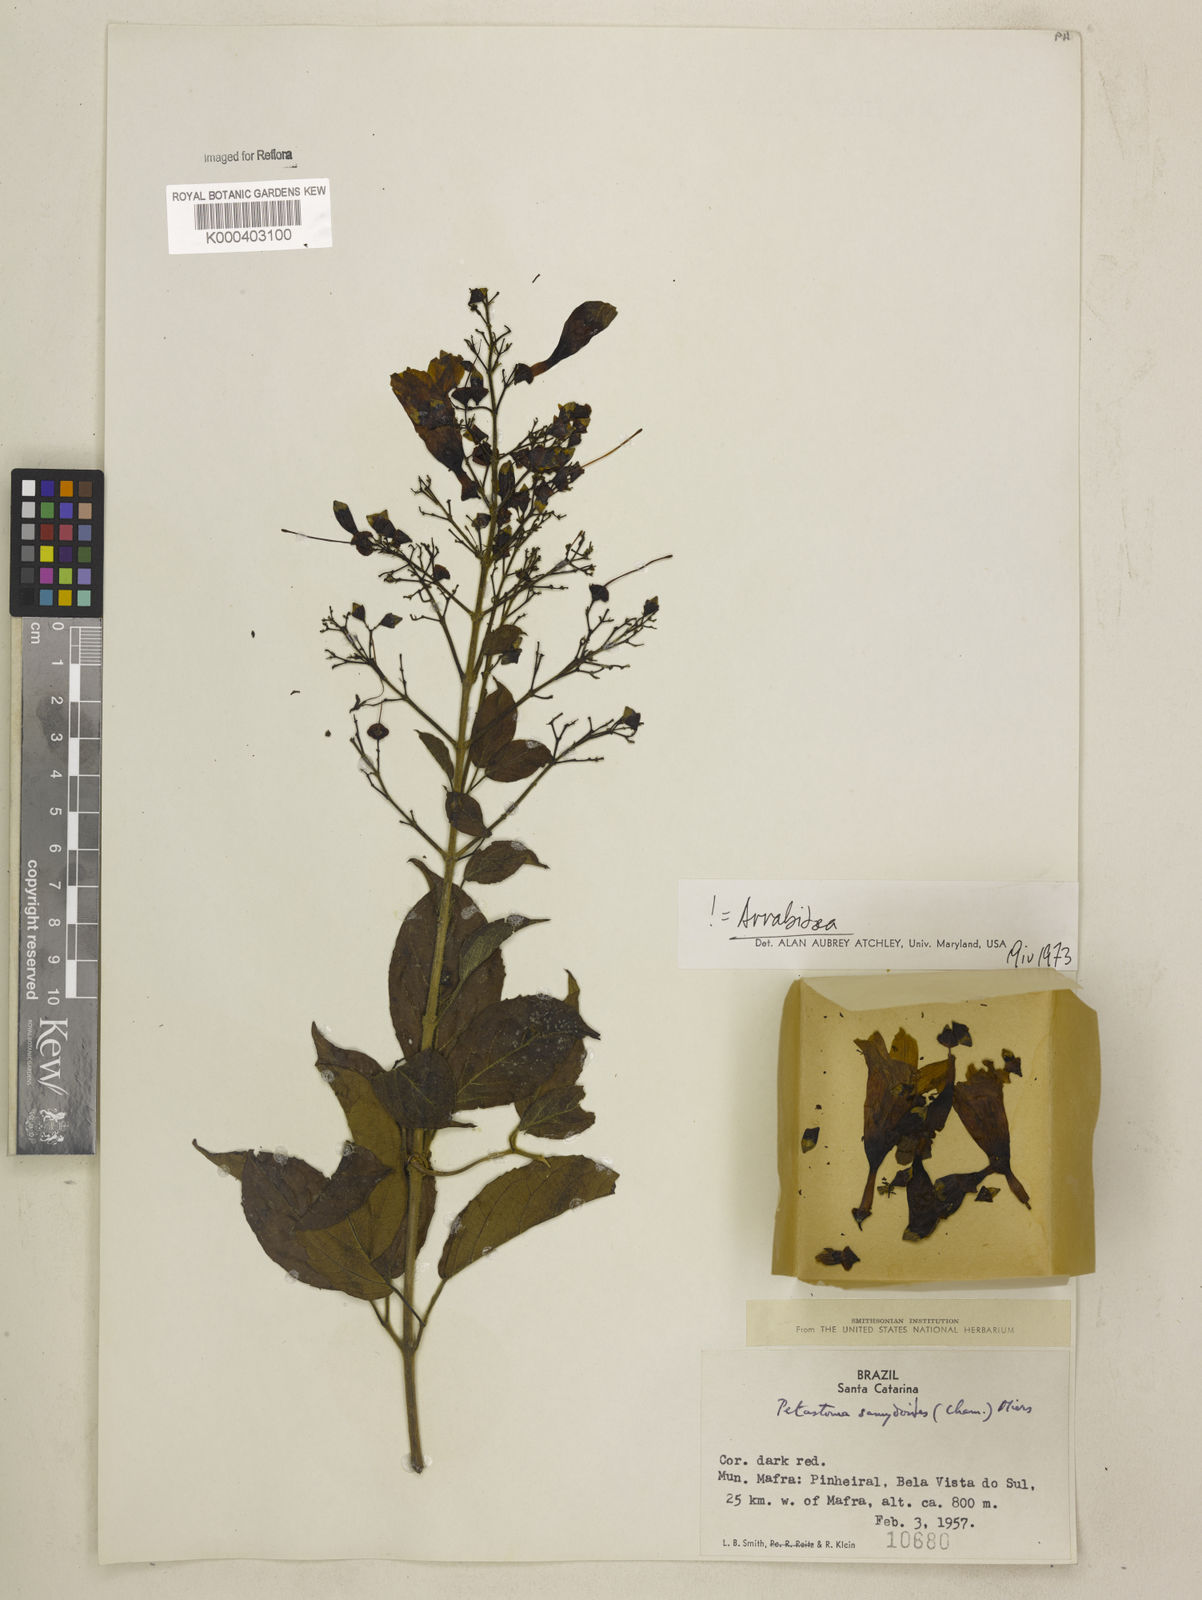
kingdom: Plantae
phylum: Tracheophyta
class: Magnoliopsida
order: Lamiales
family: Bignoniaceae
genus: Fridericia
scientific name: Fridericia samydoides
